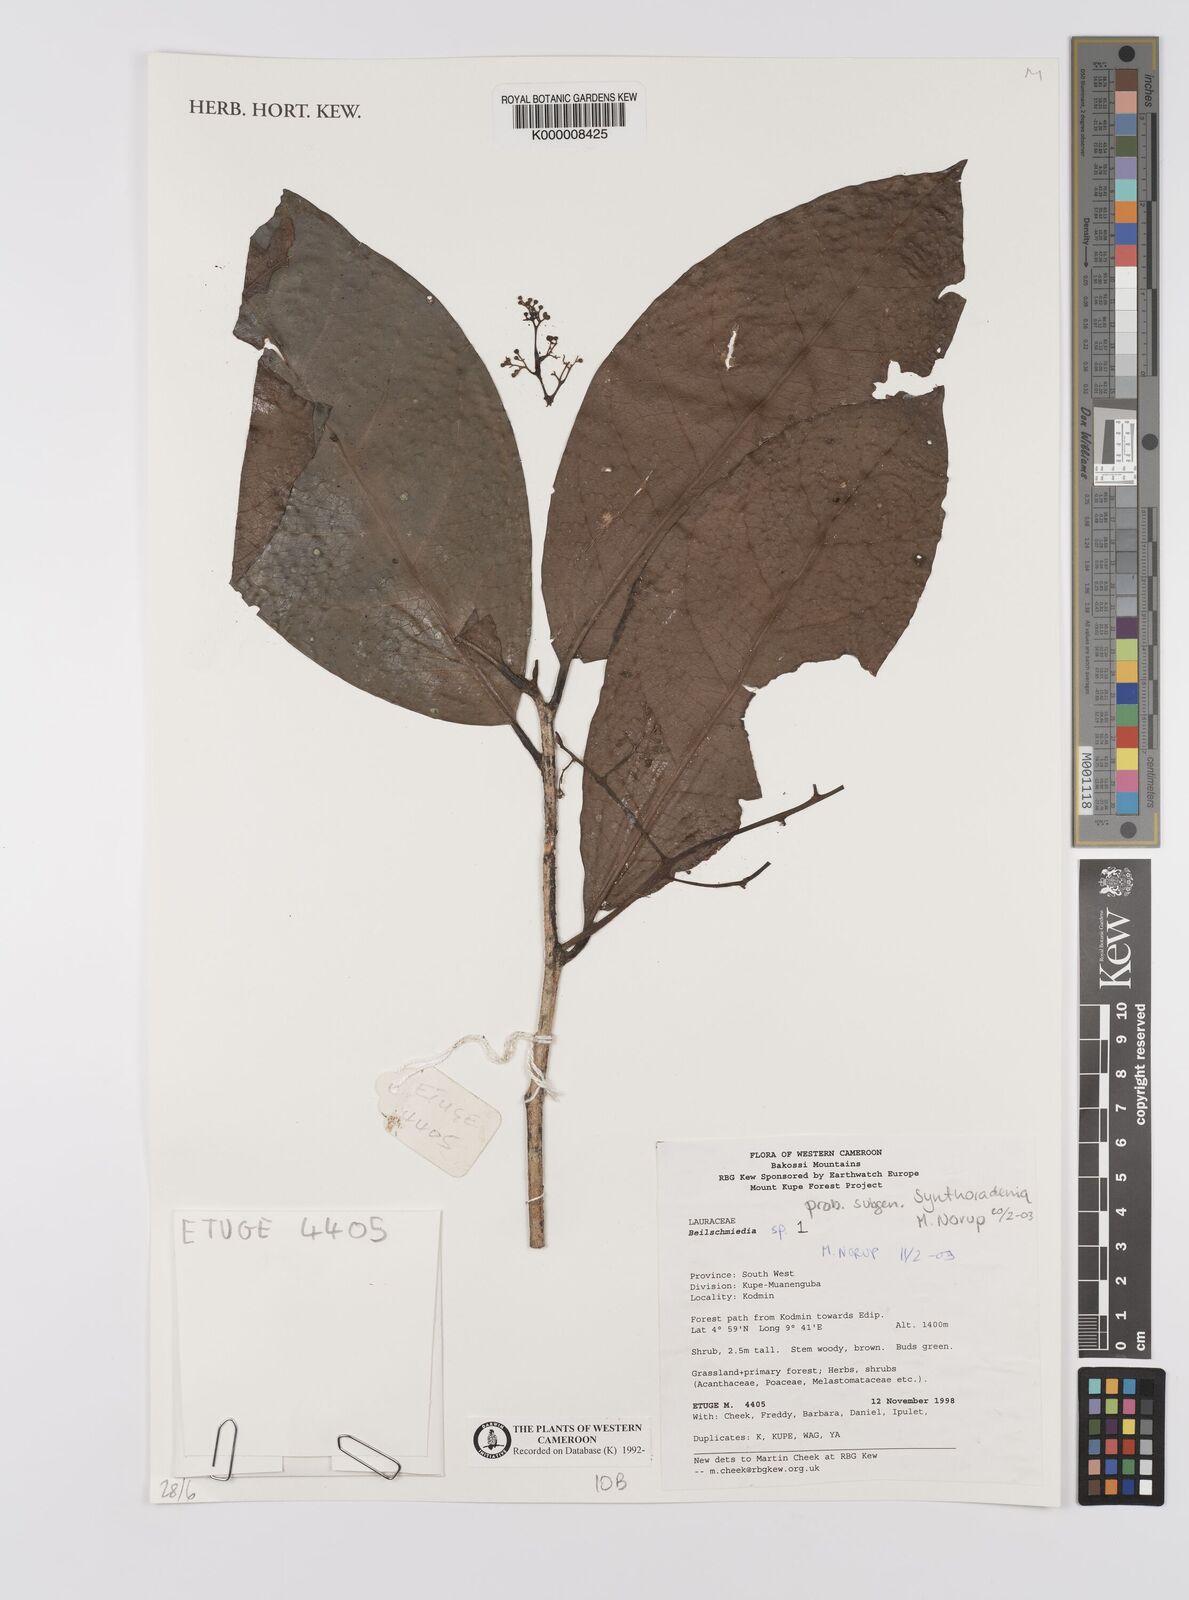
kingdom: Plantae
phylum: Tracheophyta
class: Magnoliopsida
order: Laurales
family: Lauraceae
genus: Beilschmiedia
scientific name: Beilschmiedia
